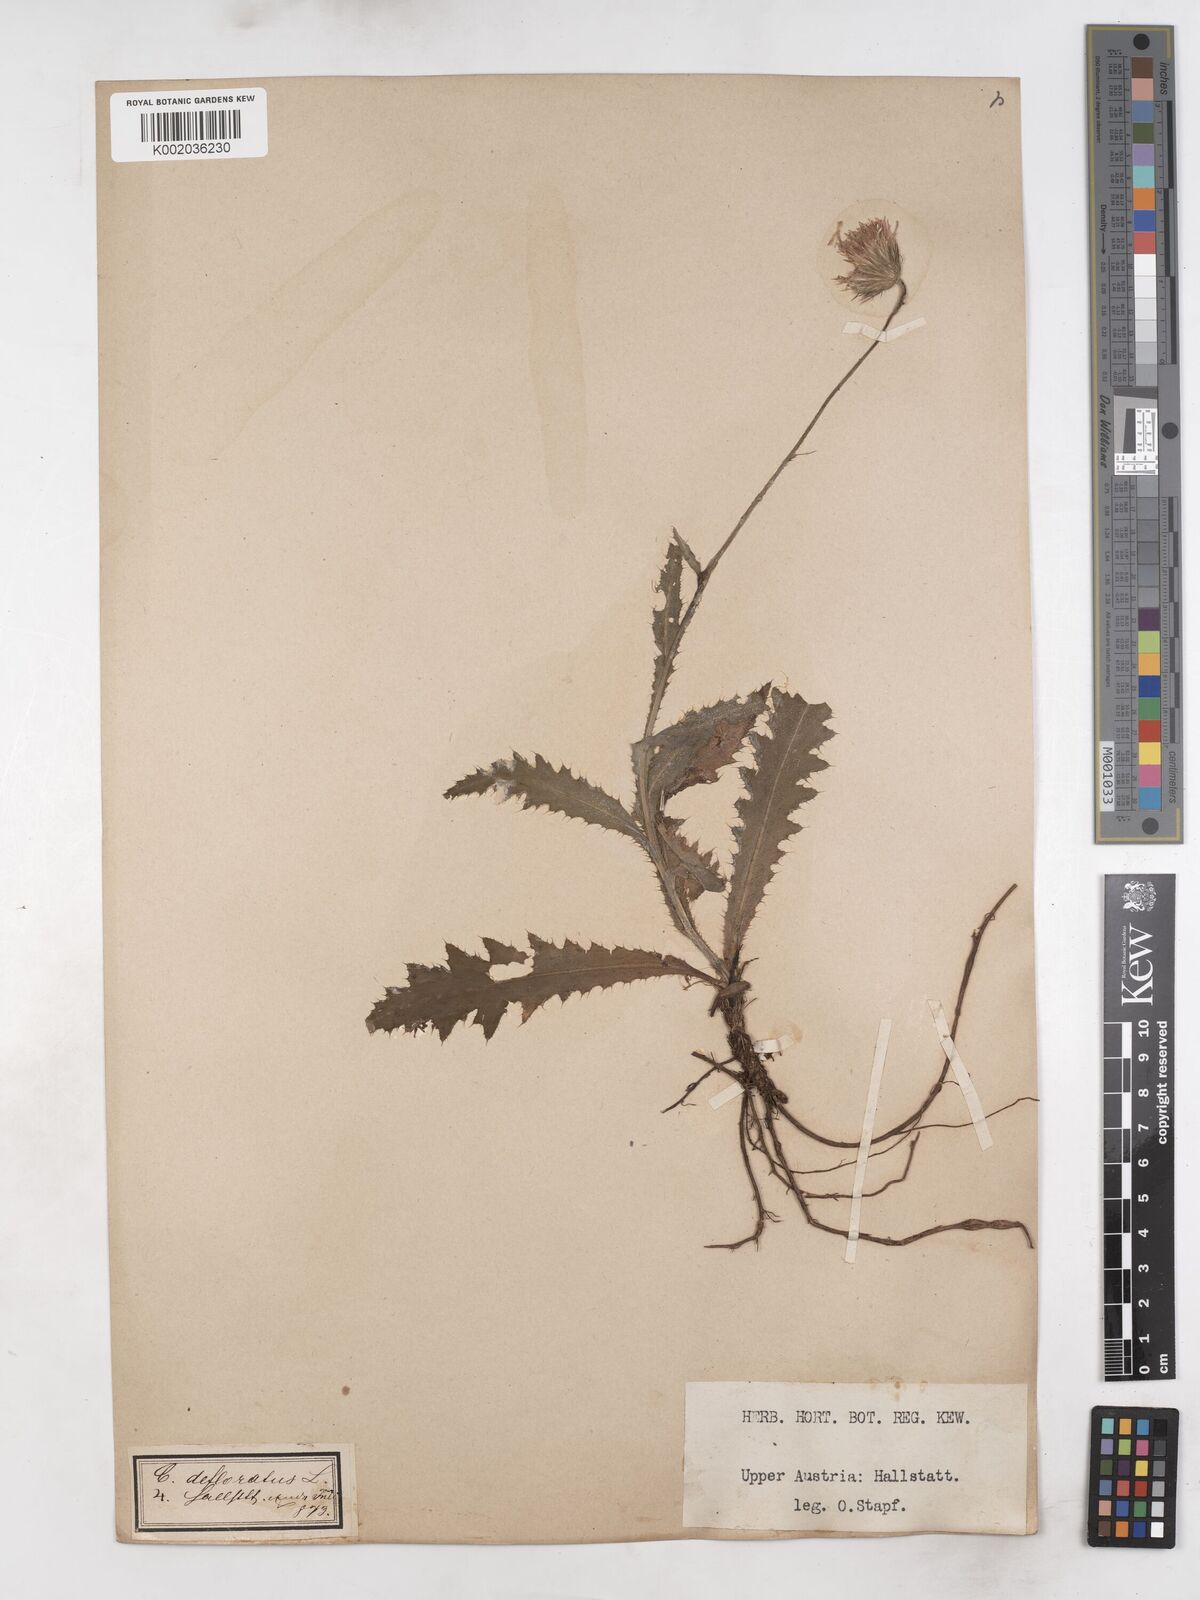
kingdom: Plantae
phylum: Tracheophyta
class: Magnoliopsida
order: Asterales
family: Asteraceae
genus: Carduus
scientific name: Carduus defloratus
